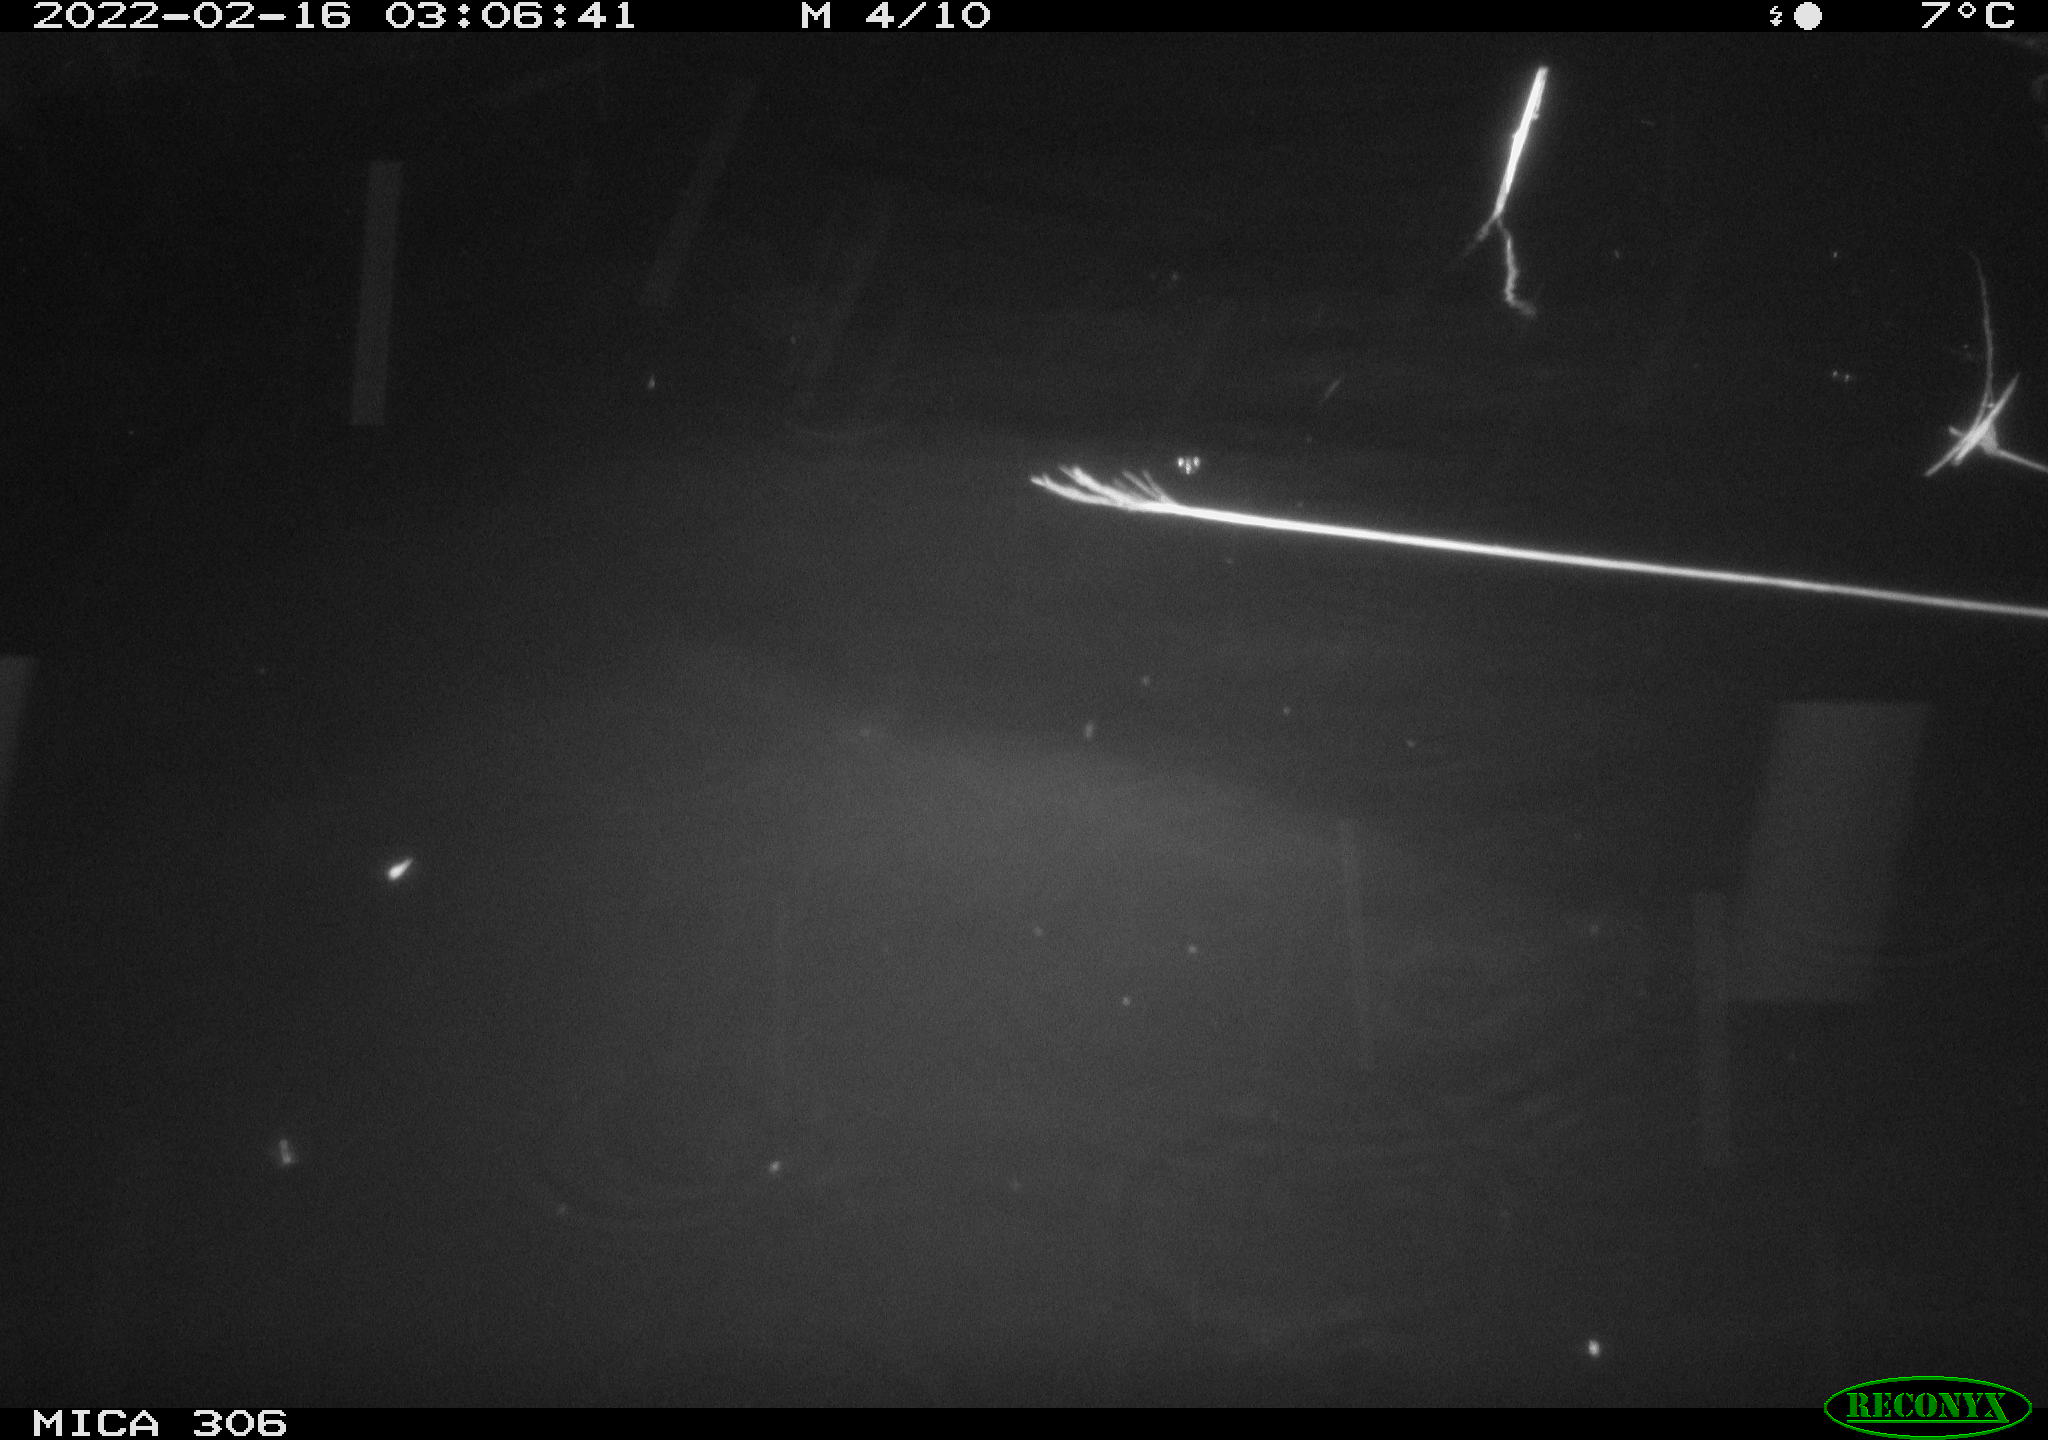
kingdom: Animalia
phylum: Chordata
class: Mammalia
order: Rodentia
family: Cricetidae
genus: Ondatra
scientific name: Ondatra zibethicus
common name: Muskrat
